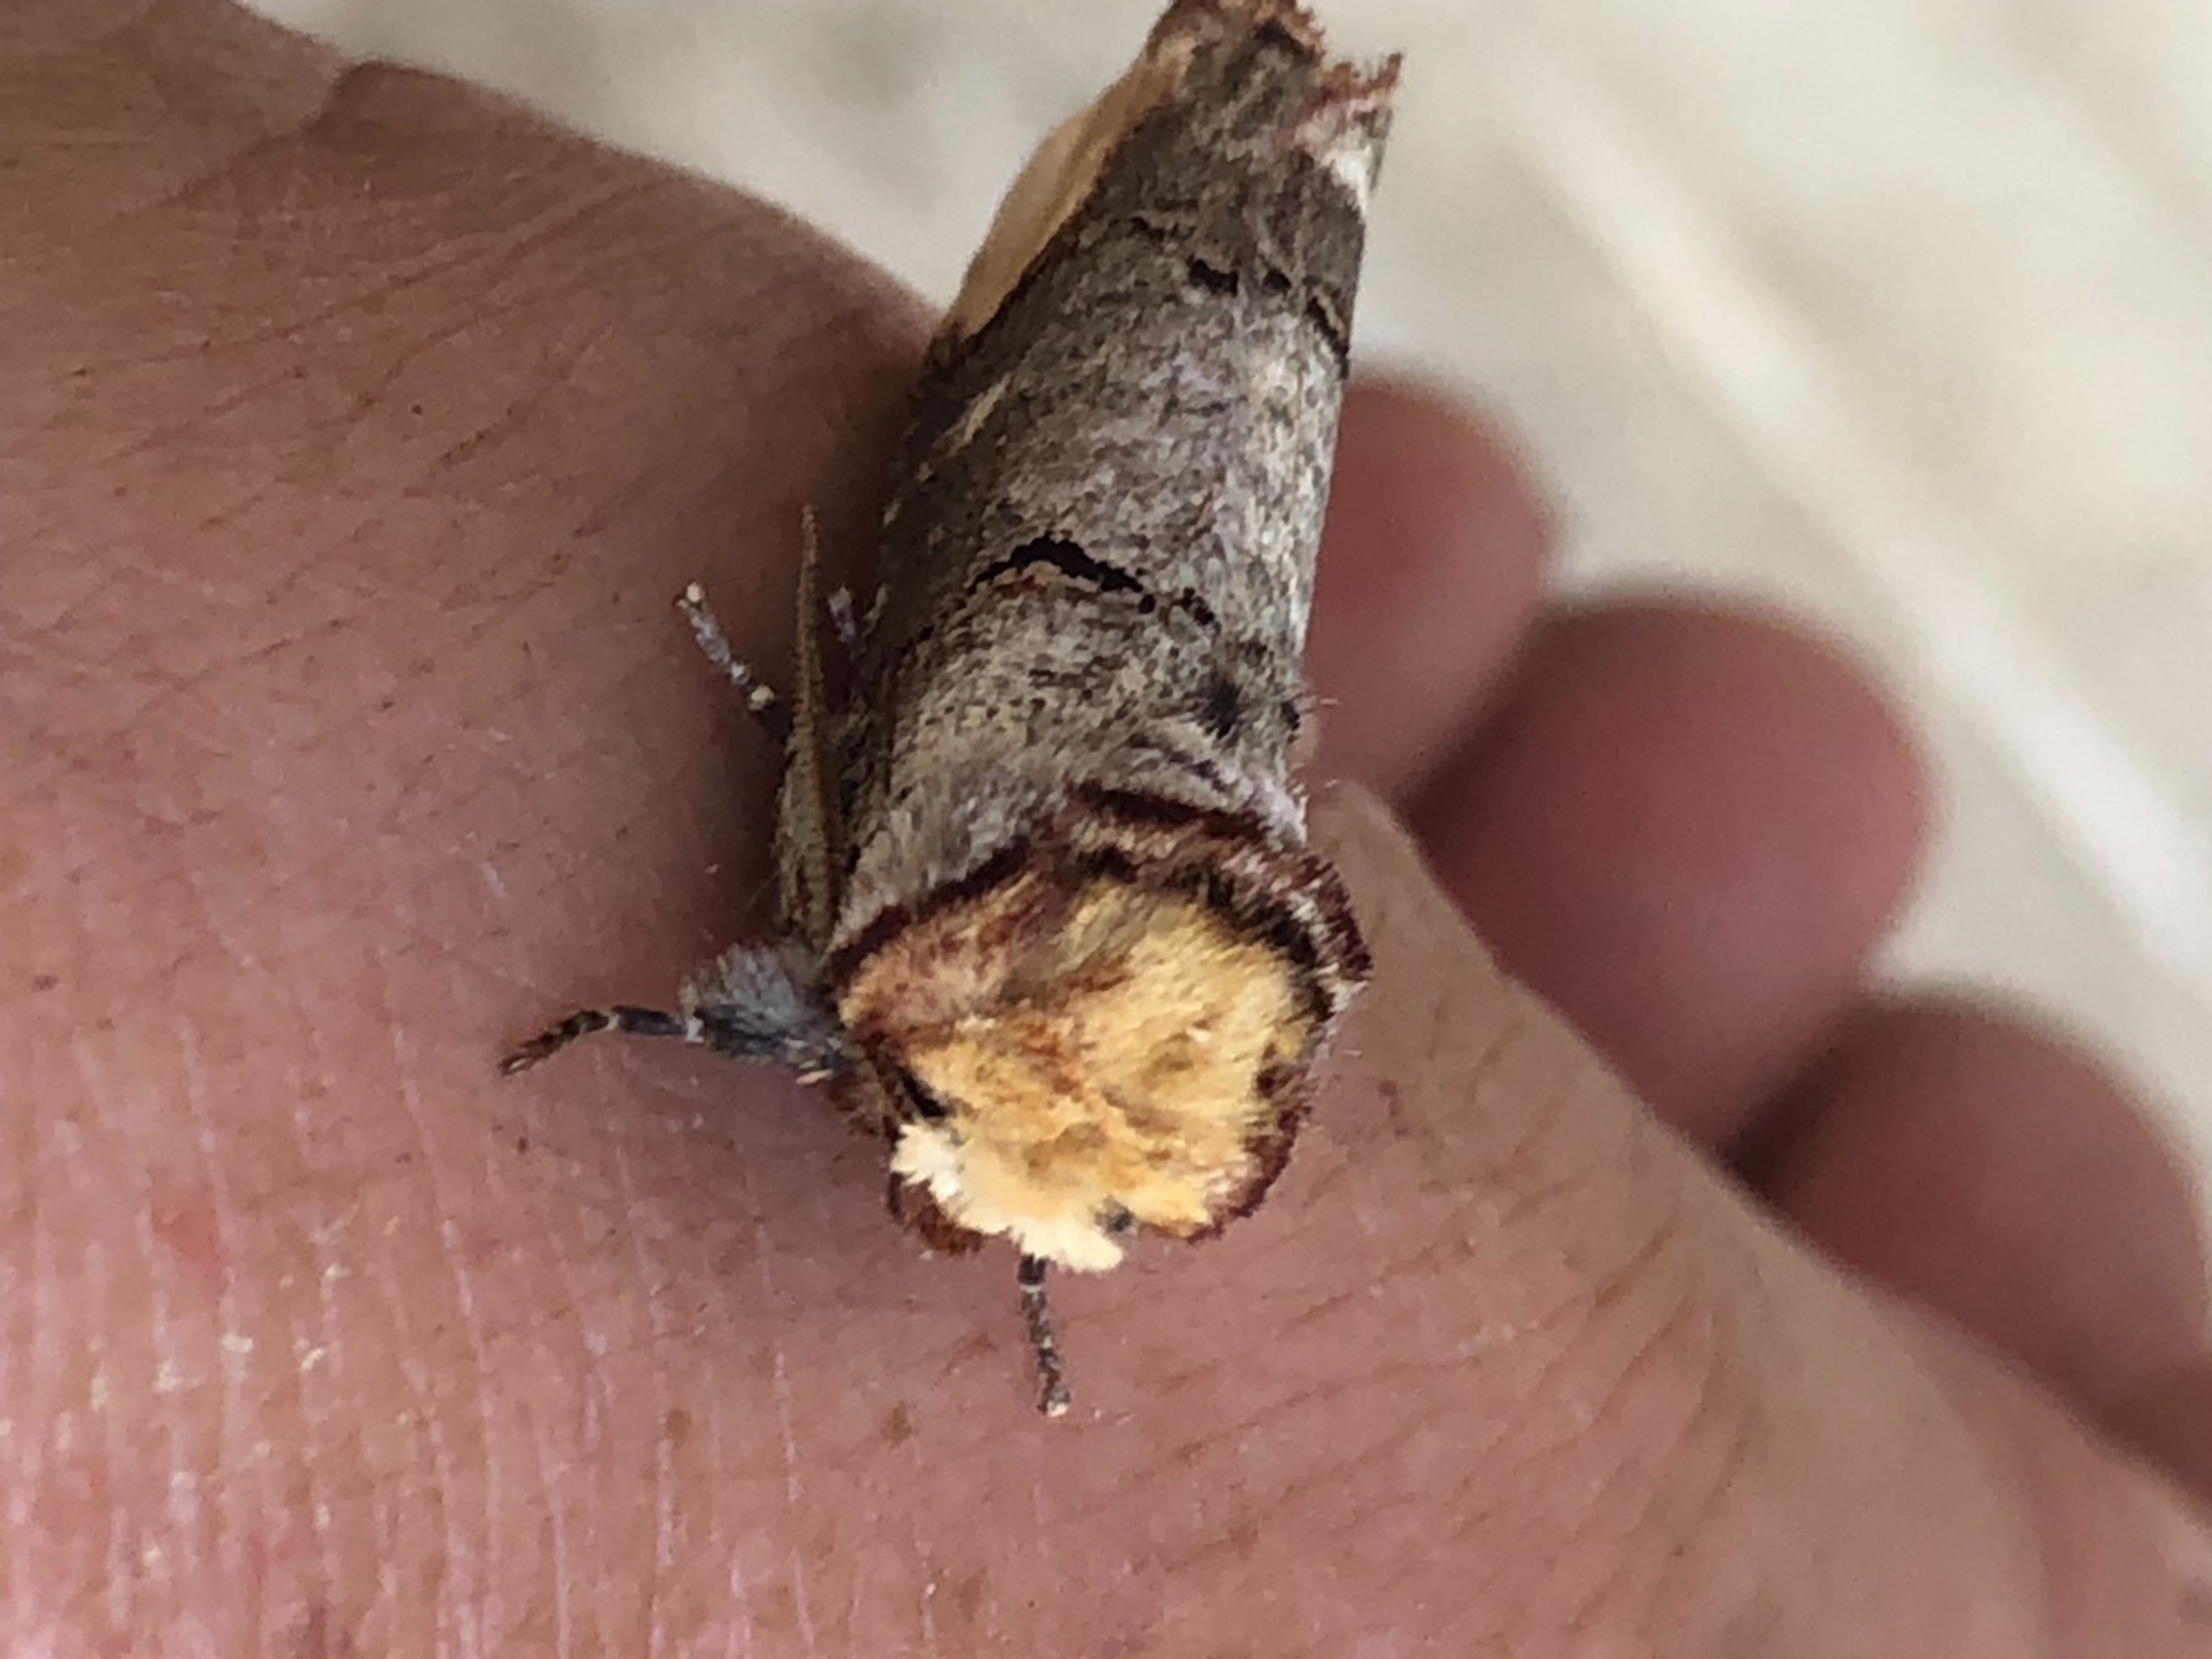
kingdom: Animalia
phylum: Arthropoda
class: Insecta
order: Lepidoptera
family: Notodontidae
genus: Phalera
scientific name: Phalera bucephala
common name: Måneplet
